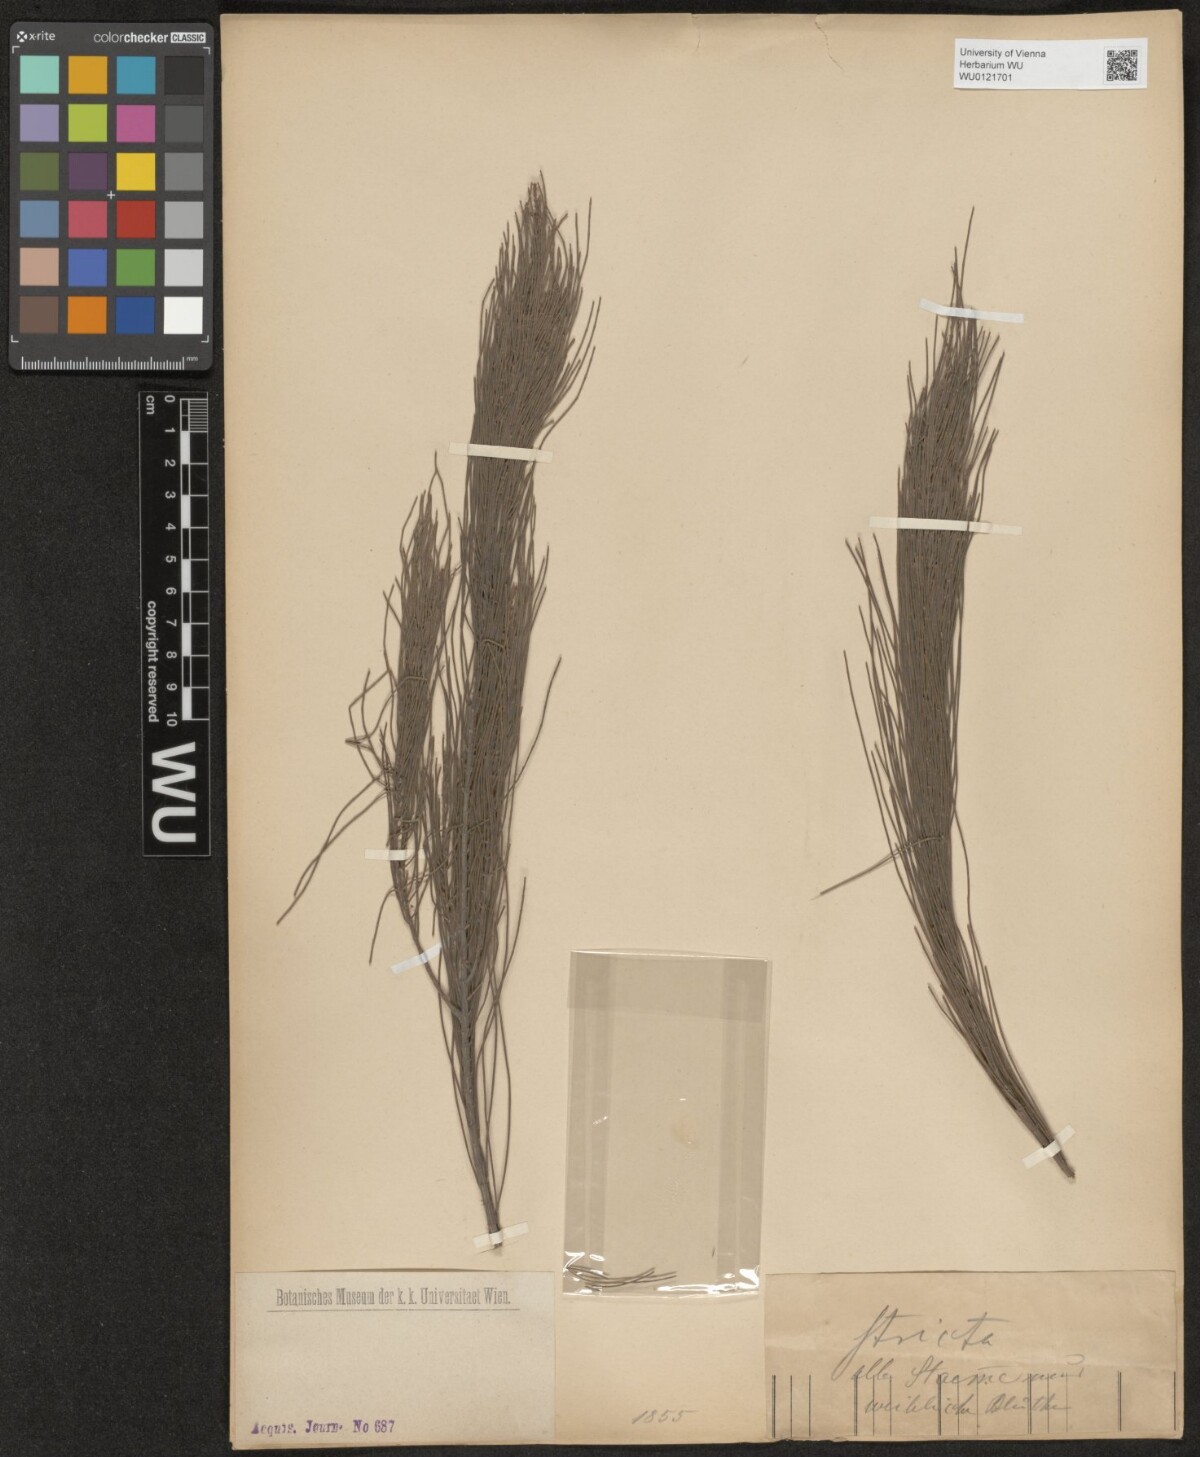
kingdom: Plantae
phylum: Tracheophyta
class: Magnoliopsida
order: Fagales
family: Casuarinaceae
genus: Casuarina
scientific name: Casuarina stricta
